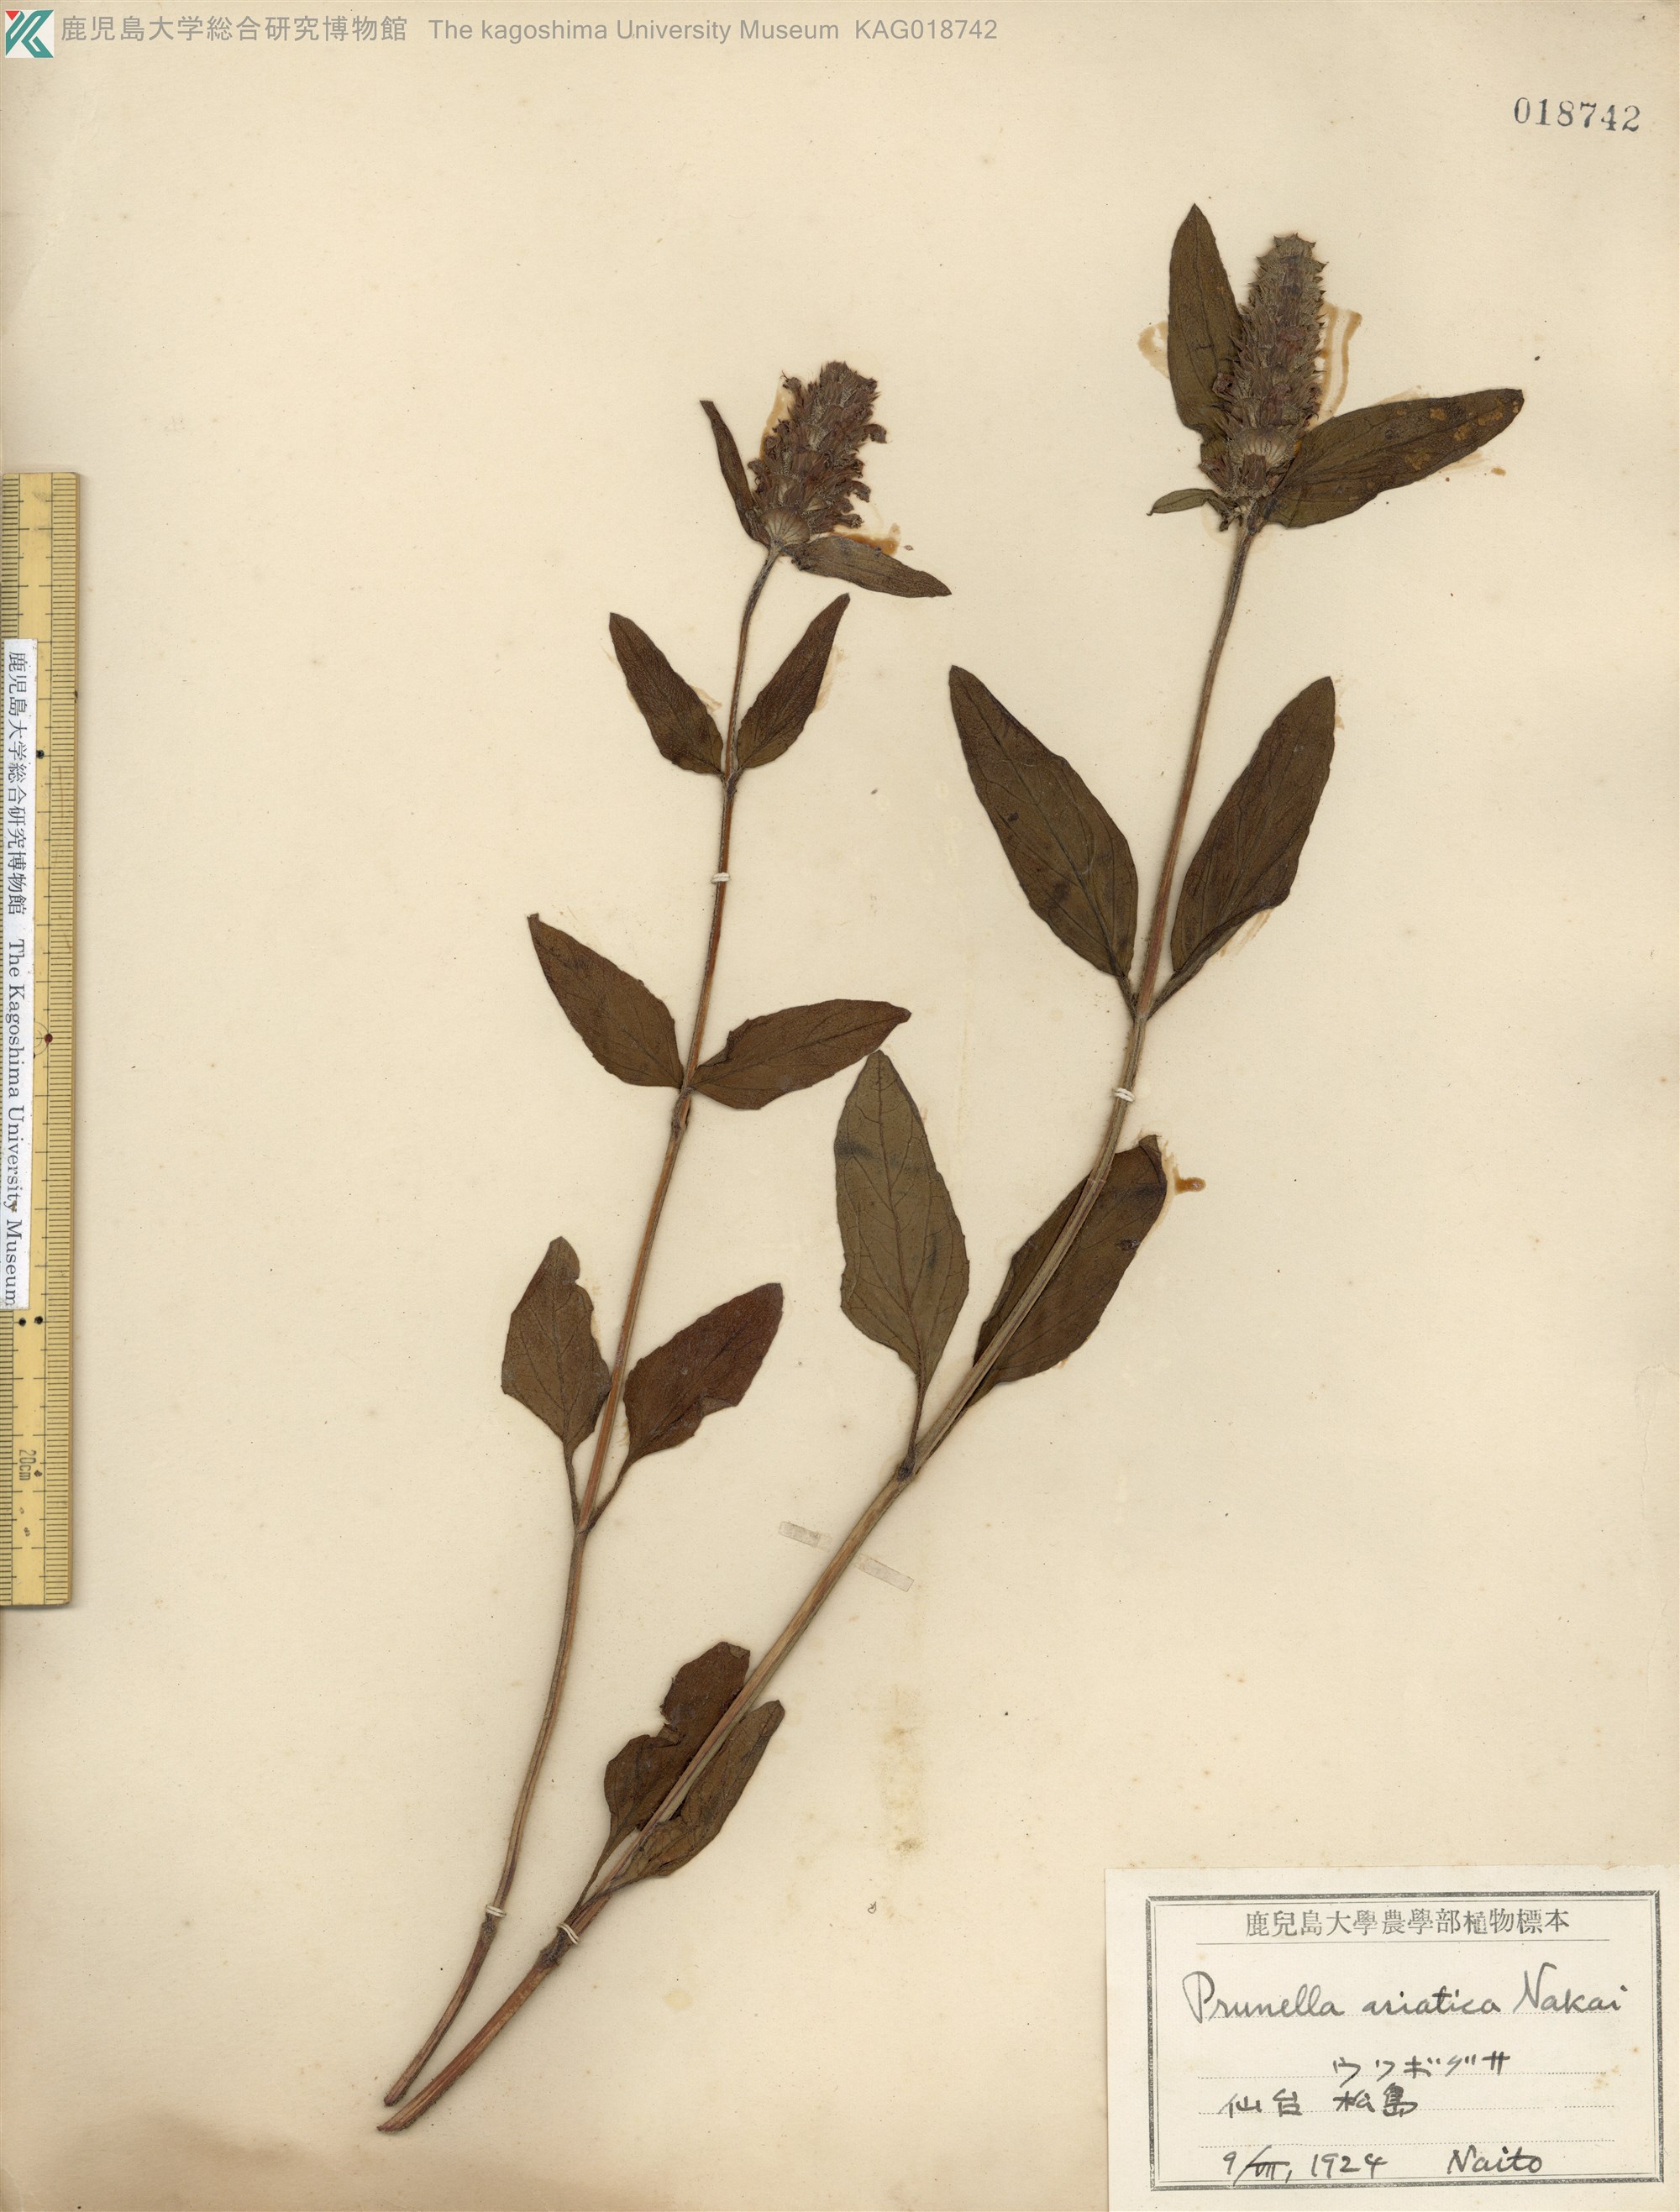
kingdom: Plantae
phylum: Tracheophyta
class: Magnoliopsida
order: Lamiales
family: Lamiaceae
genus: Prunella
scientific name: Prunella vulgaris
